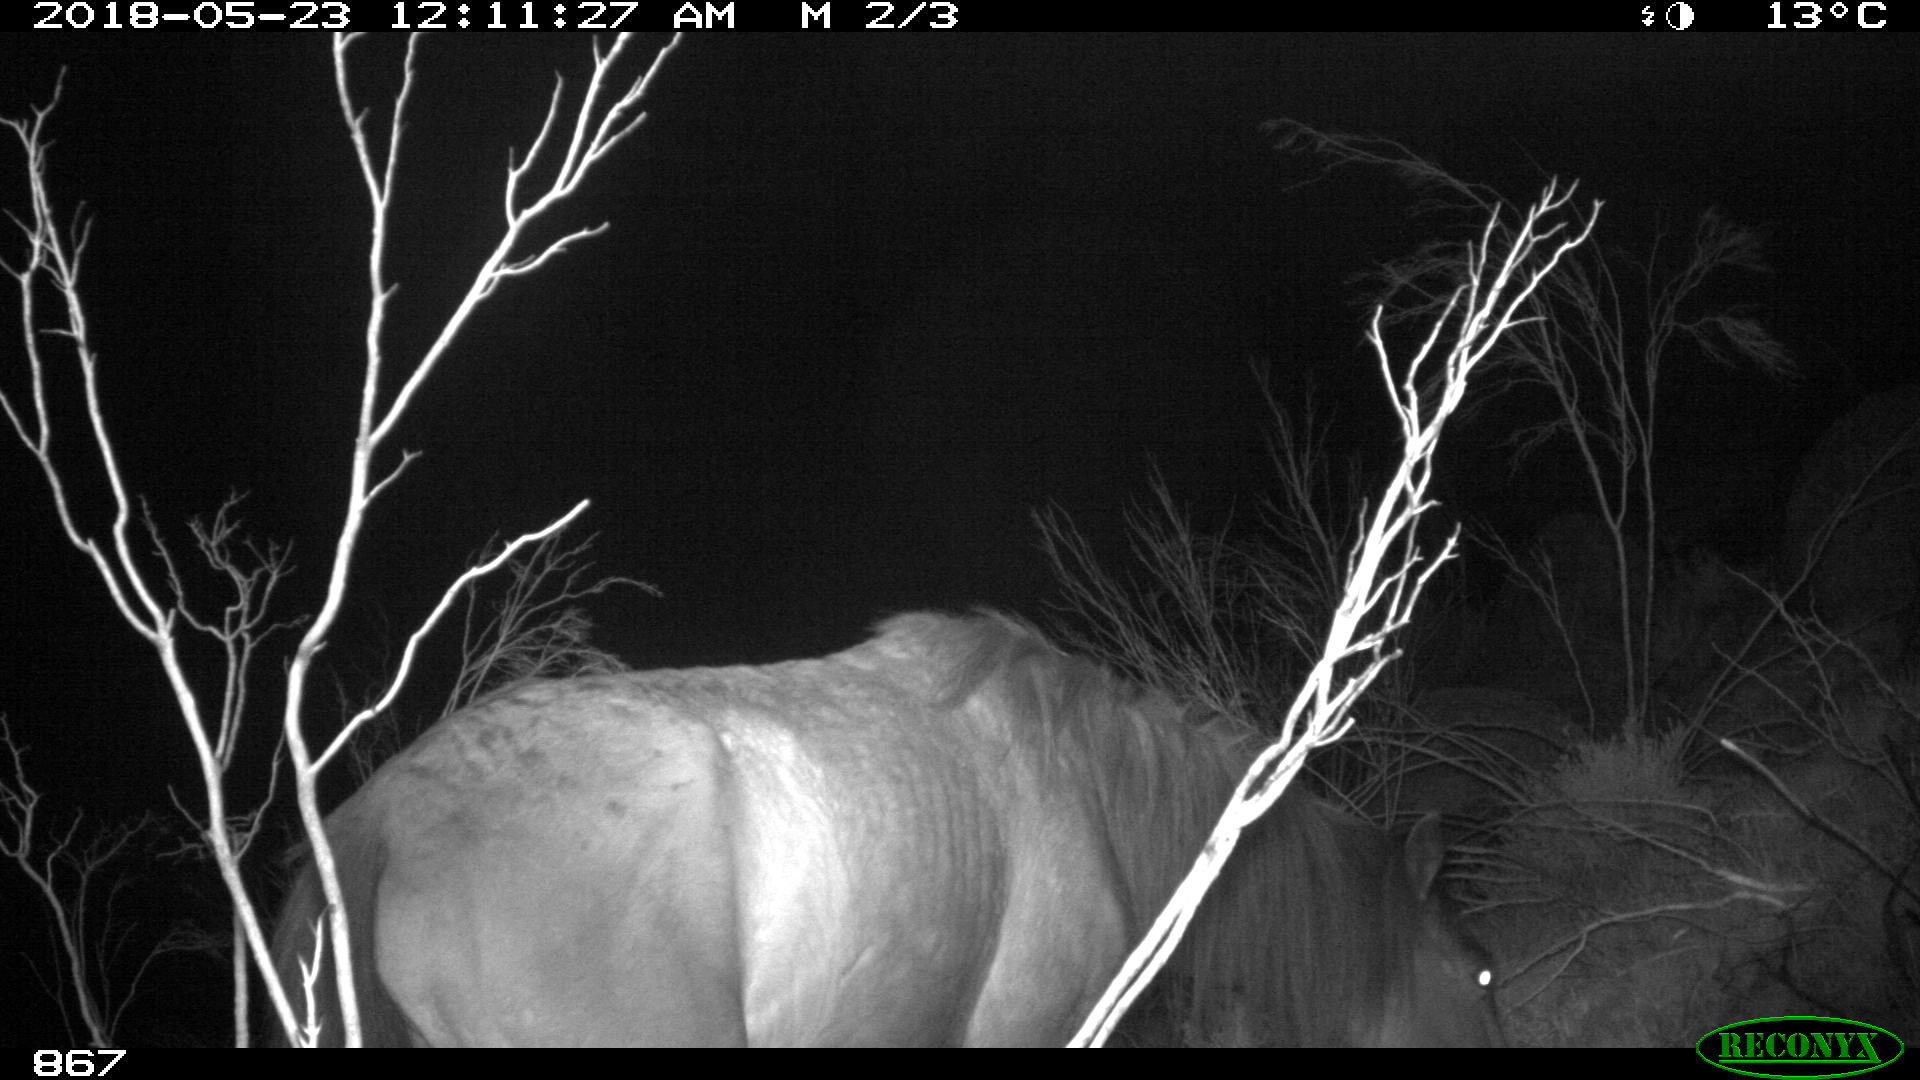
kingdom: Animalia
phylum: Chordata
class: Mammalia
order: Perissodactyla
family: Equidae
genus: Equus
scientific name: Equus caballus
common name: Horse
